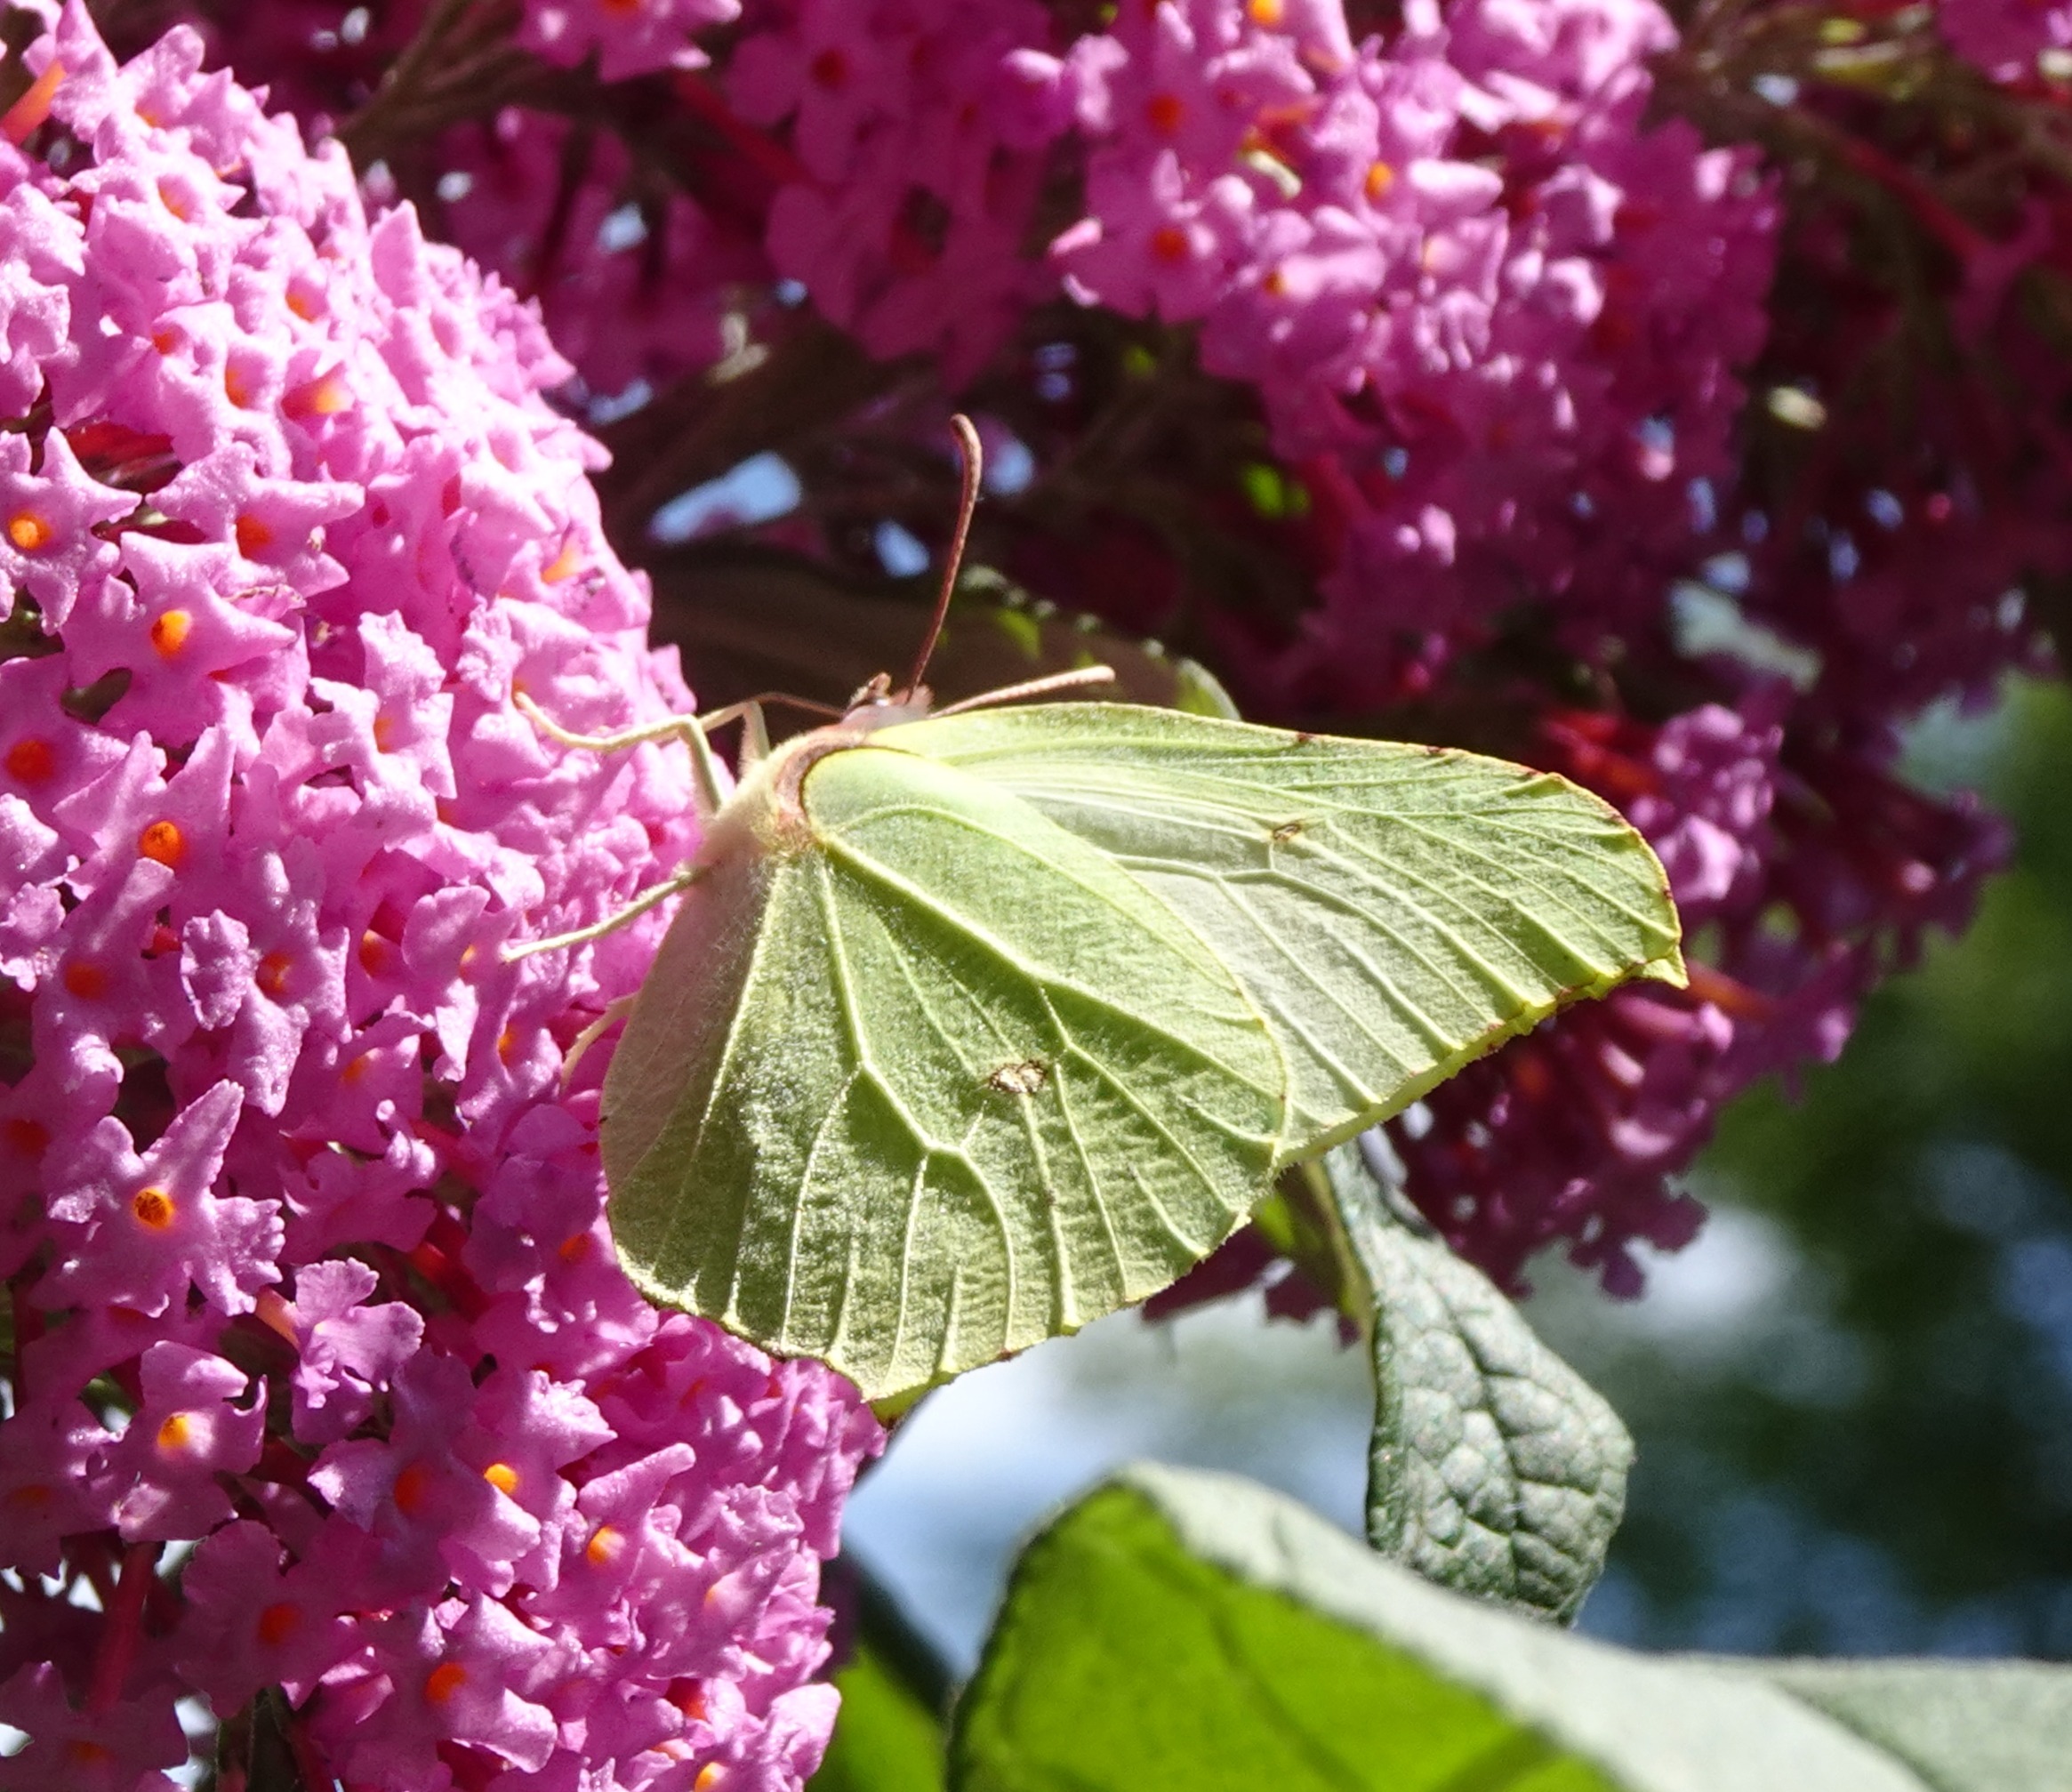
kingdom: Animalia
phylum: Arthropoda
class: Insecta
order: Lepidoptera
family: Pieridae
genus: Gonepteryx
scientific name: Gonepteryx rhamni
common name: Citronsommerfugl
